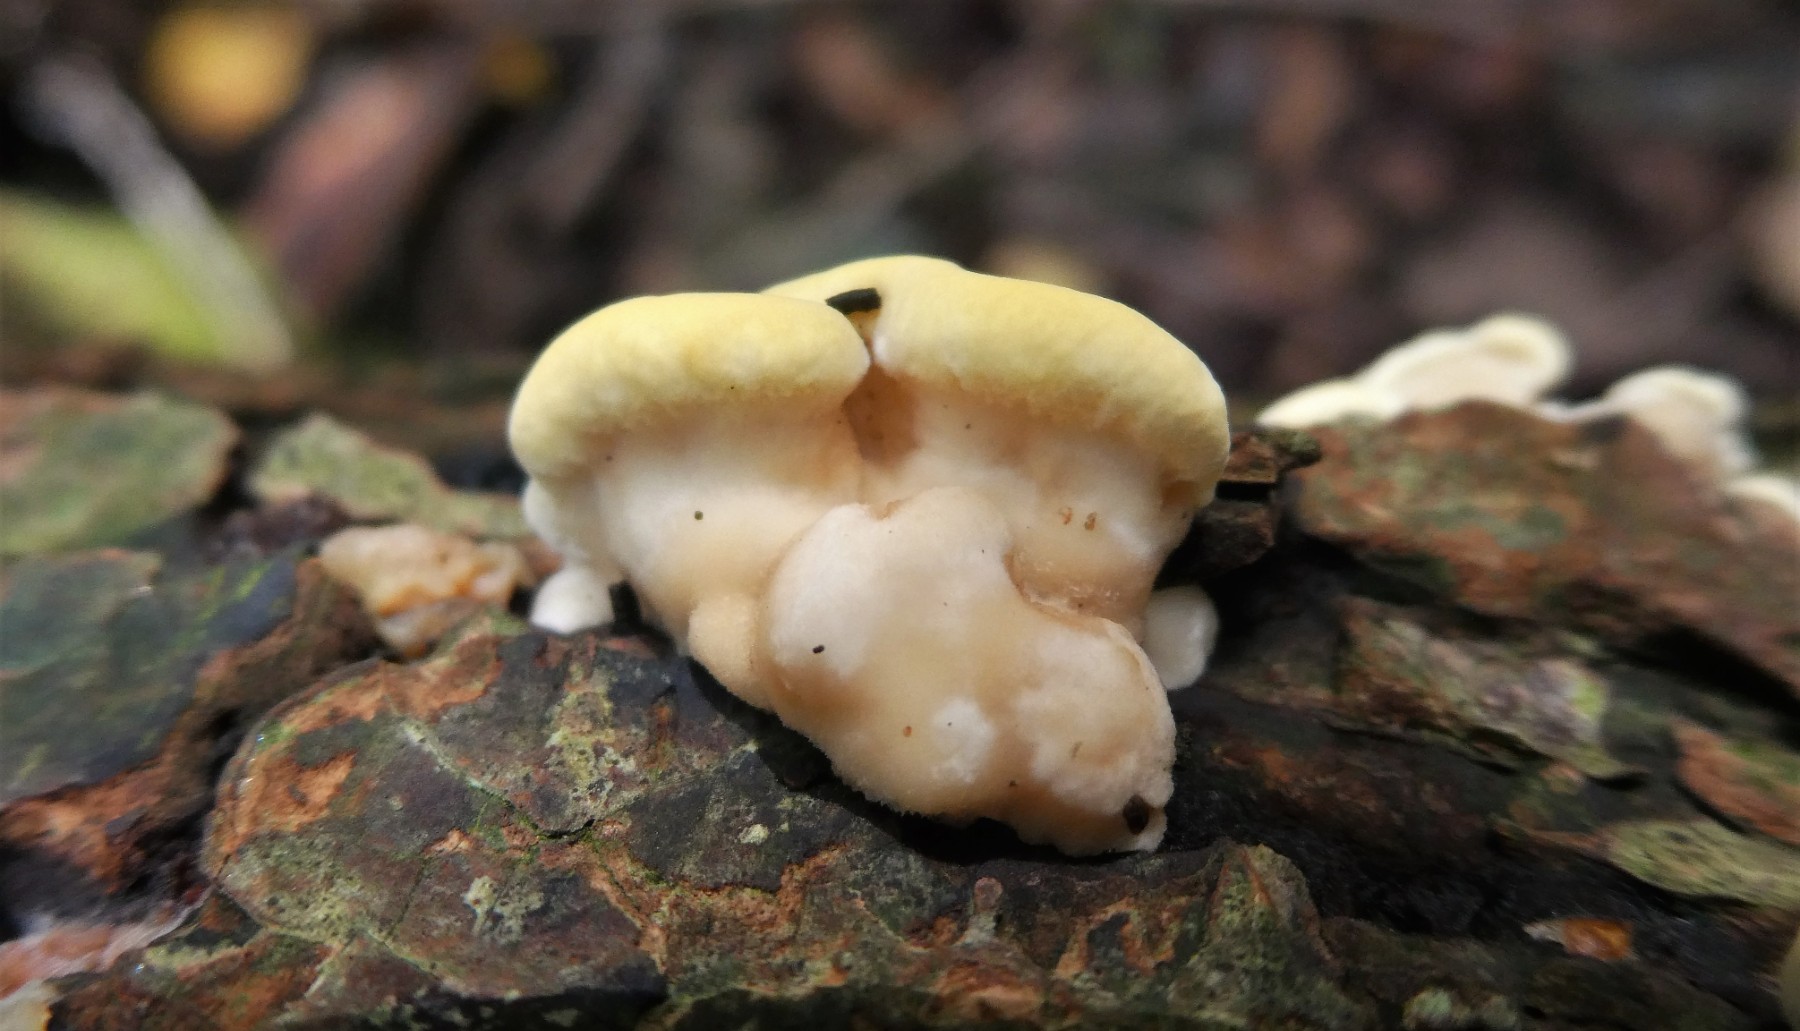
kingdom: Fungi
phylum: Basidiomycota
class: Agaricomycetes
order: Polyporales
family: Steccherinaceae
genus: Antrodiella
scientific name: Antrodiella serpula
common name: gulrandet elastikporesvamp
